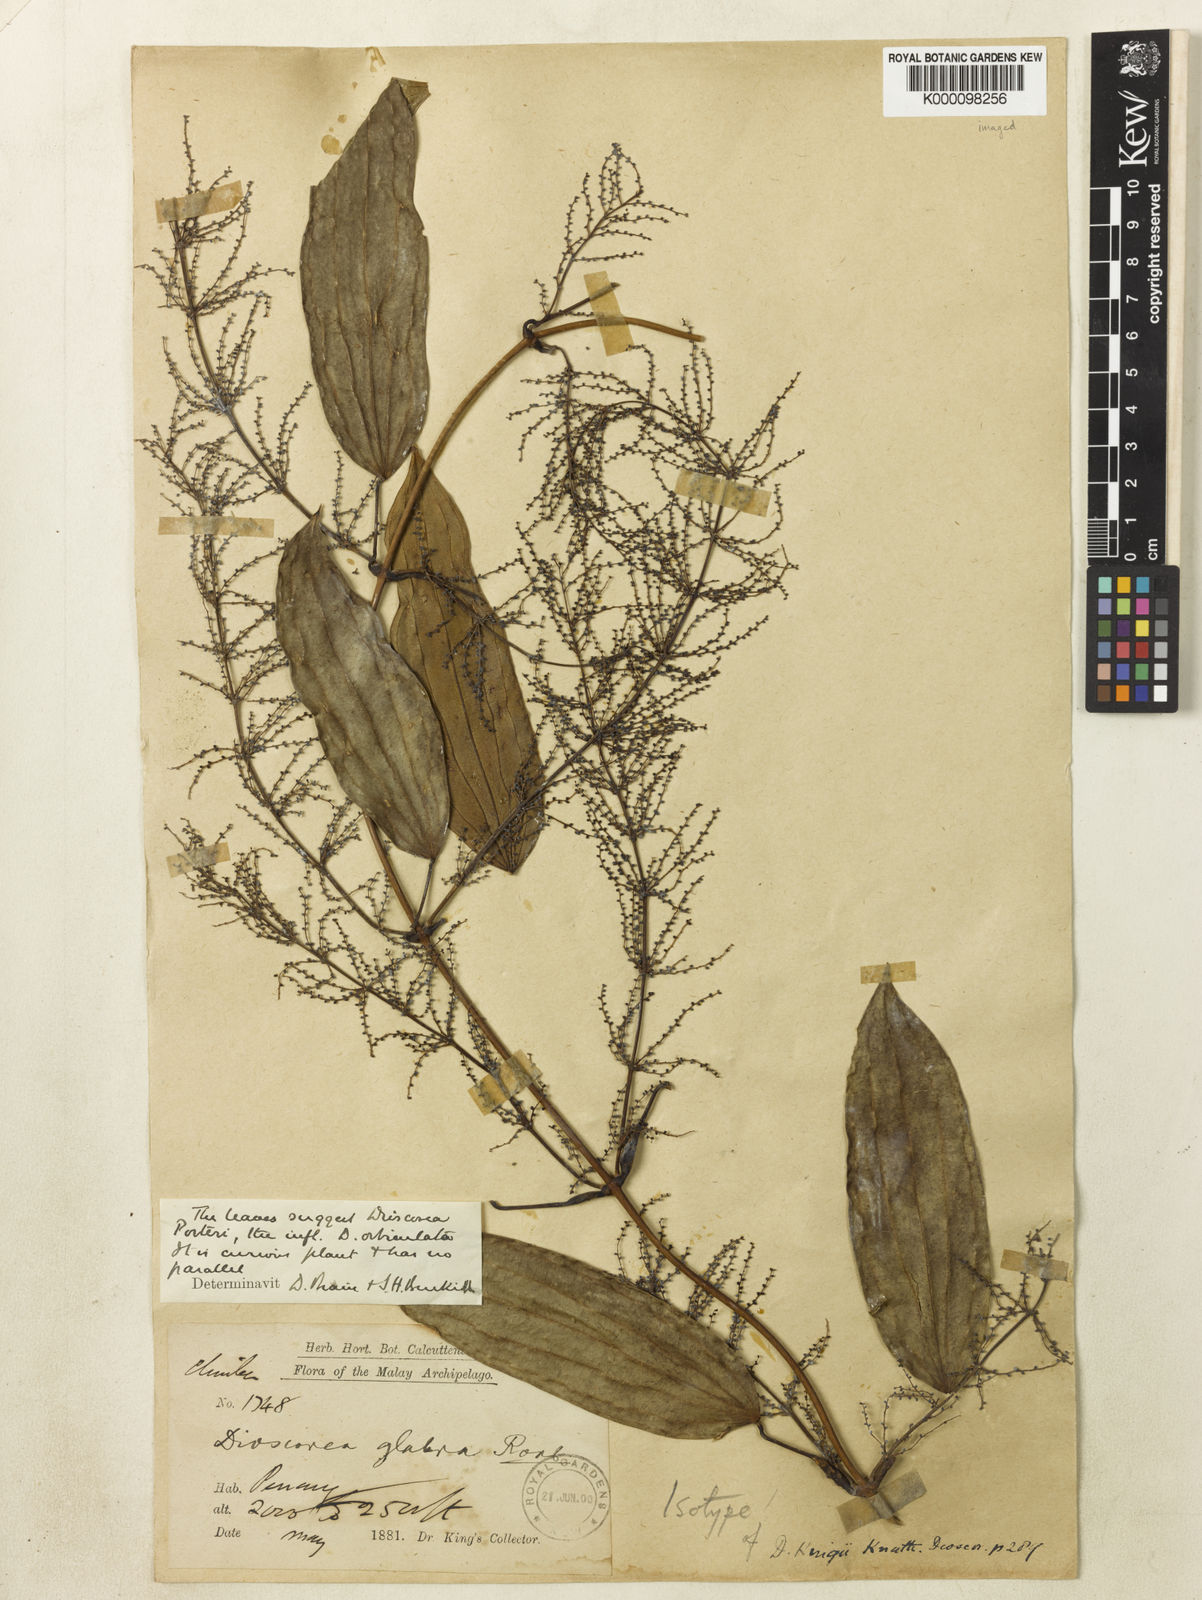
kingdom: Plantae
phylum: Tracheophyta
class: Liliopsida
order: Dioscoreales
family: Dioscoreaceae
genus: Dioscorea
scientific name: Dioscorea kingii
